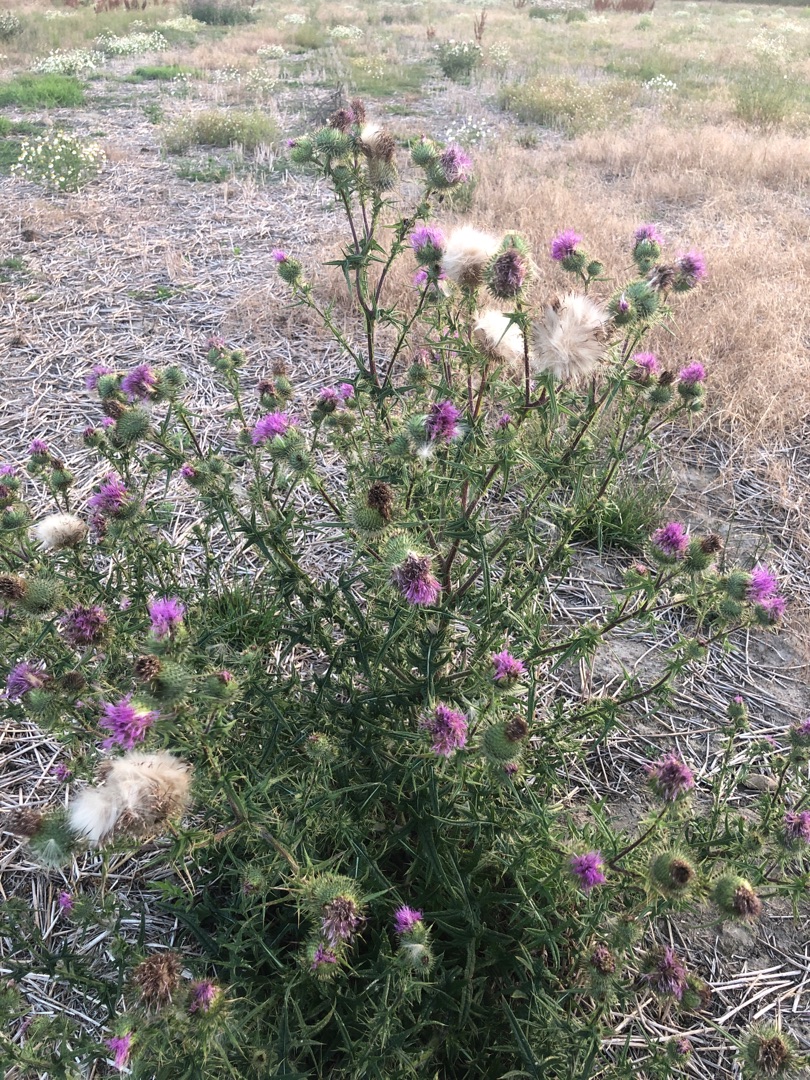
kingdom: Plantae
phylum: Tracheophyta
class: Magnoliopsida
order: Asterales
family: Asteraceae
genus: Cirsium
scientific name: Cirsium vulgare
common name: Horse-tidsel
